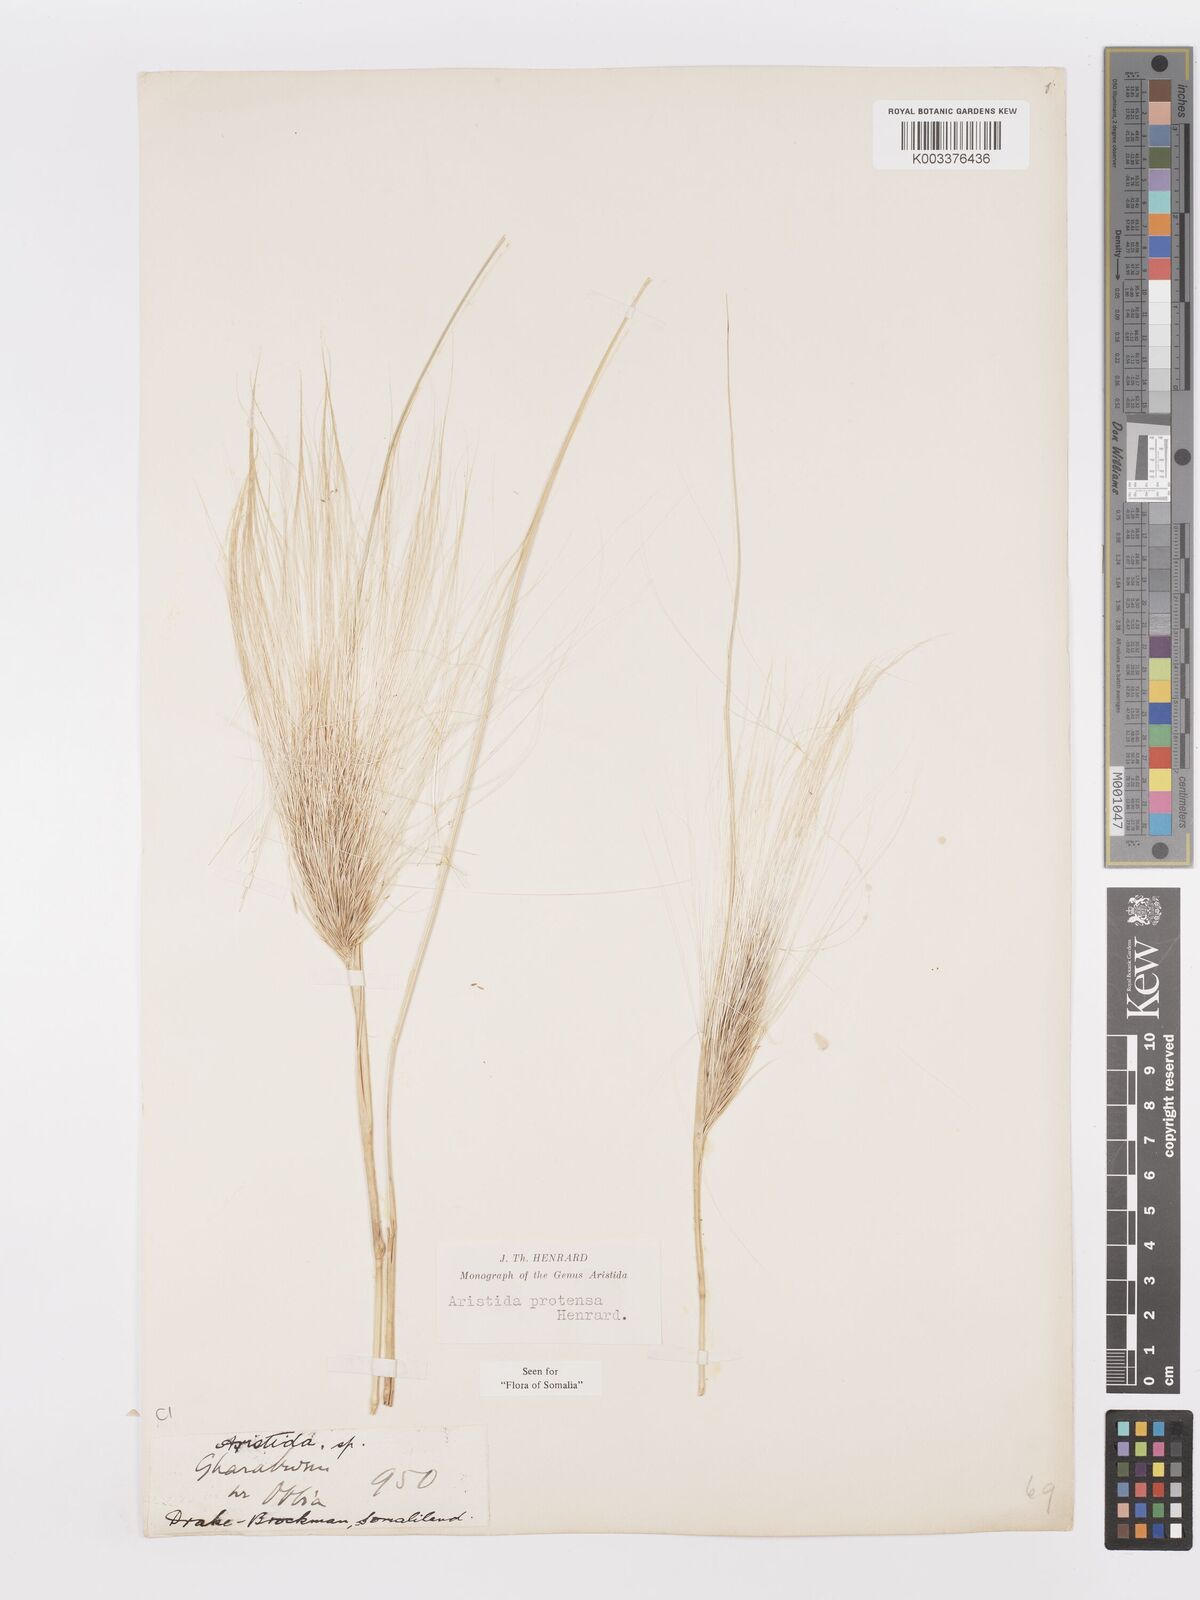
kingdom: Plantae
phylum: Tracheophyta
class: Liliopsida
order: Poales
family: Poaceae
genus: Aristida
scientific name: Aristida protensa
